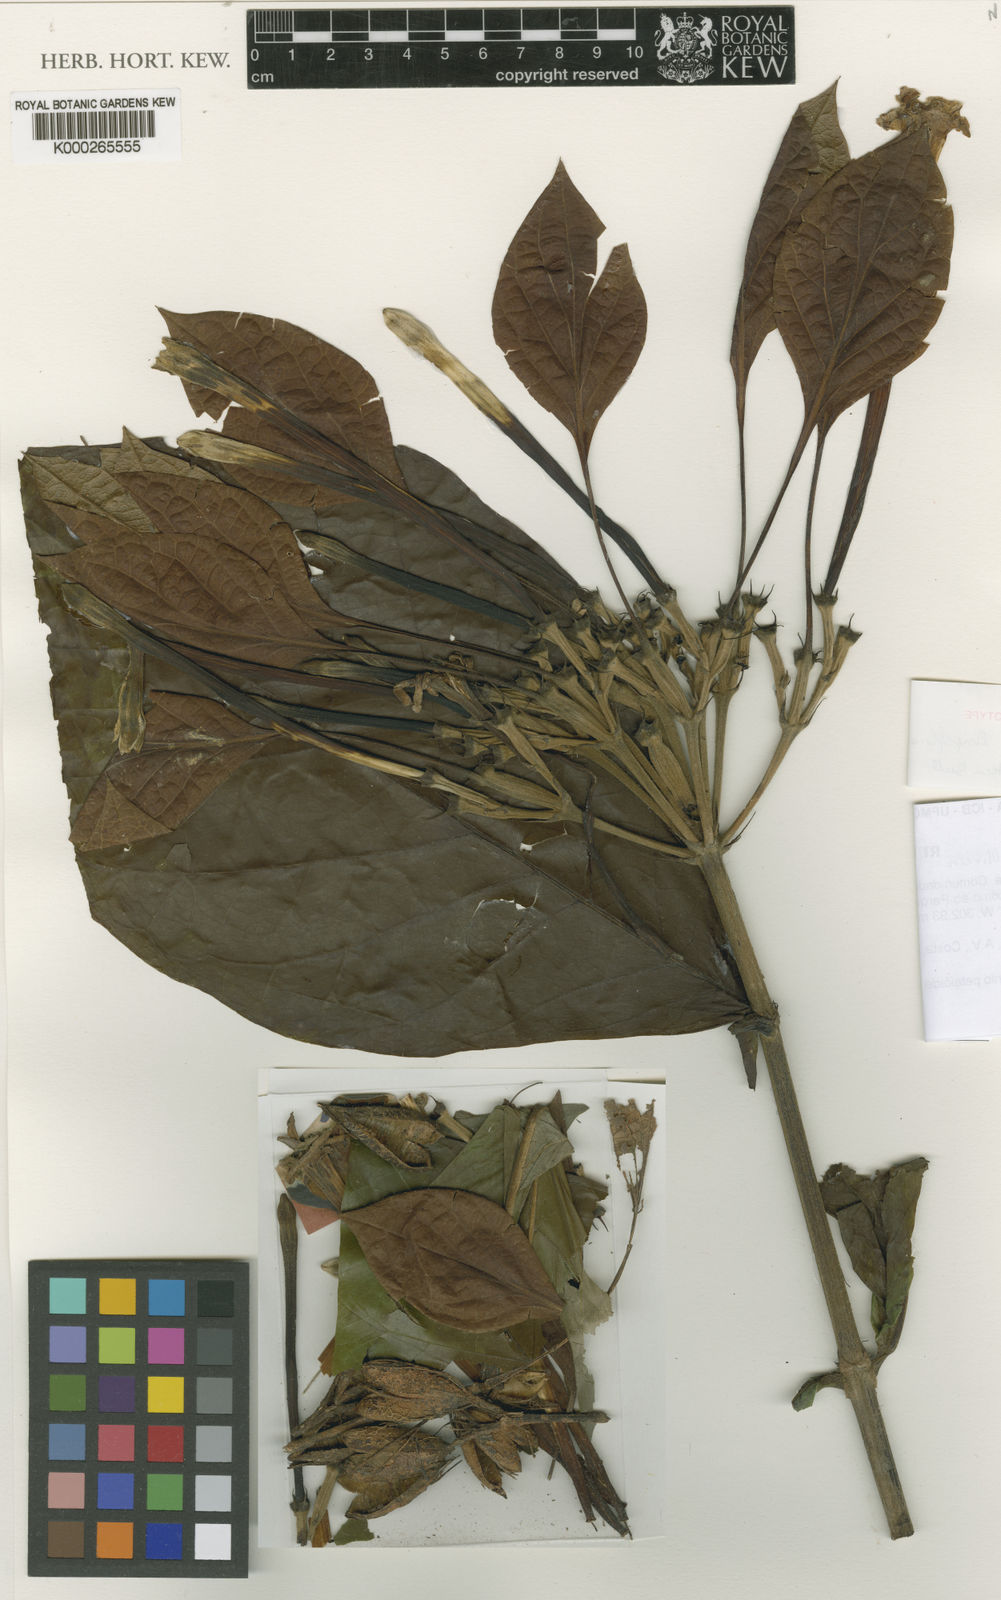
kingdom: Plantae
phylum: Tracheophyta
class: Magnoliopsida
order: Gentianales
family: Rubiaceae
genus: Kerianthera
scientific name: Kerianthera
